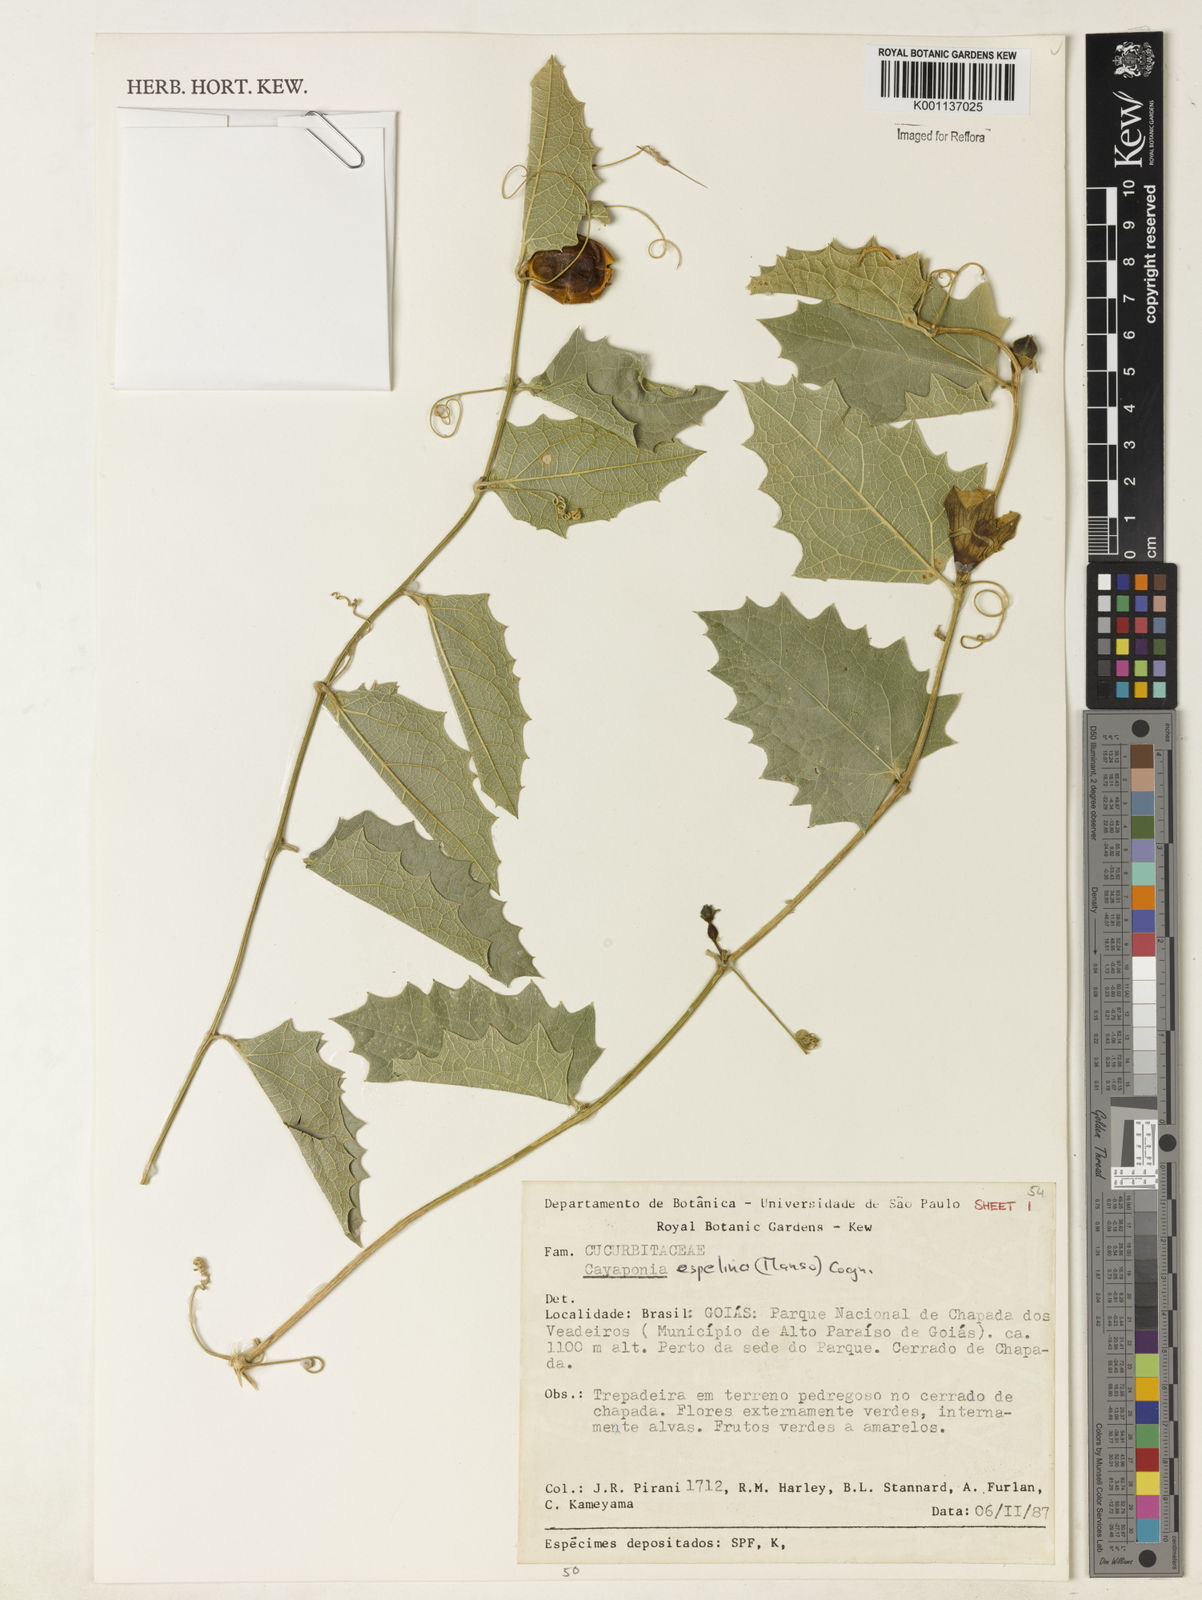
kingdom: Plantae
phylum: Tracheophyta
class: Magnoliopsida
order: Cucurbitales
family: Cucurbitaceae
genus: Cayaponia
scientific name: Cayaponia espelina
